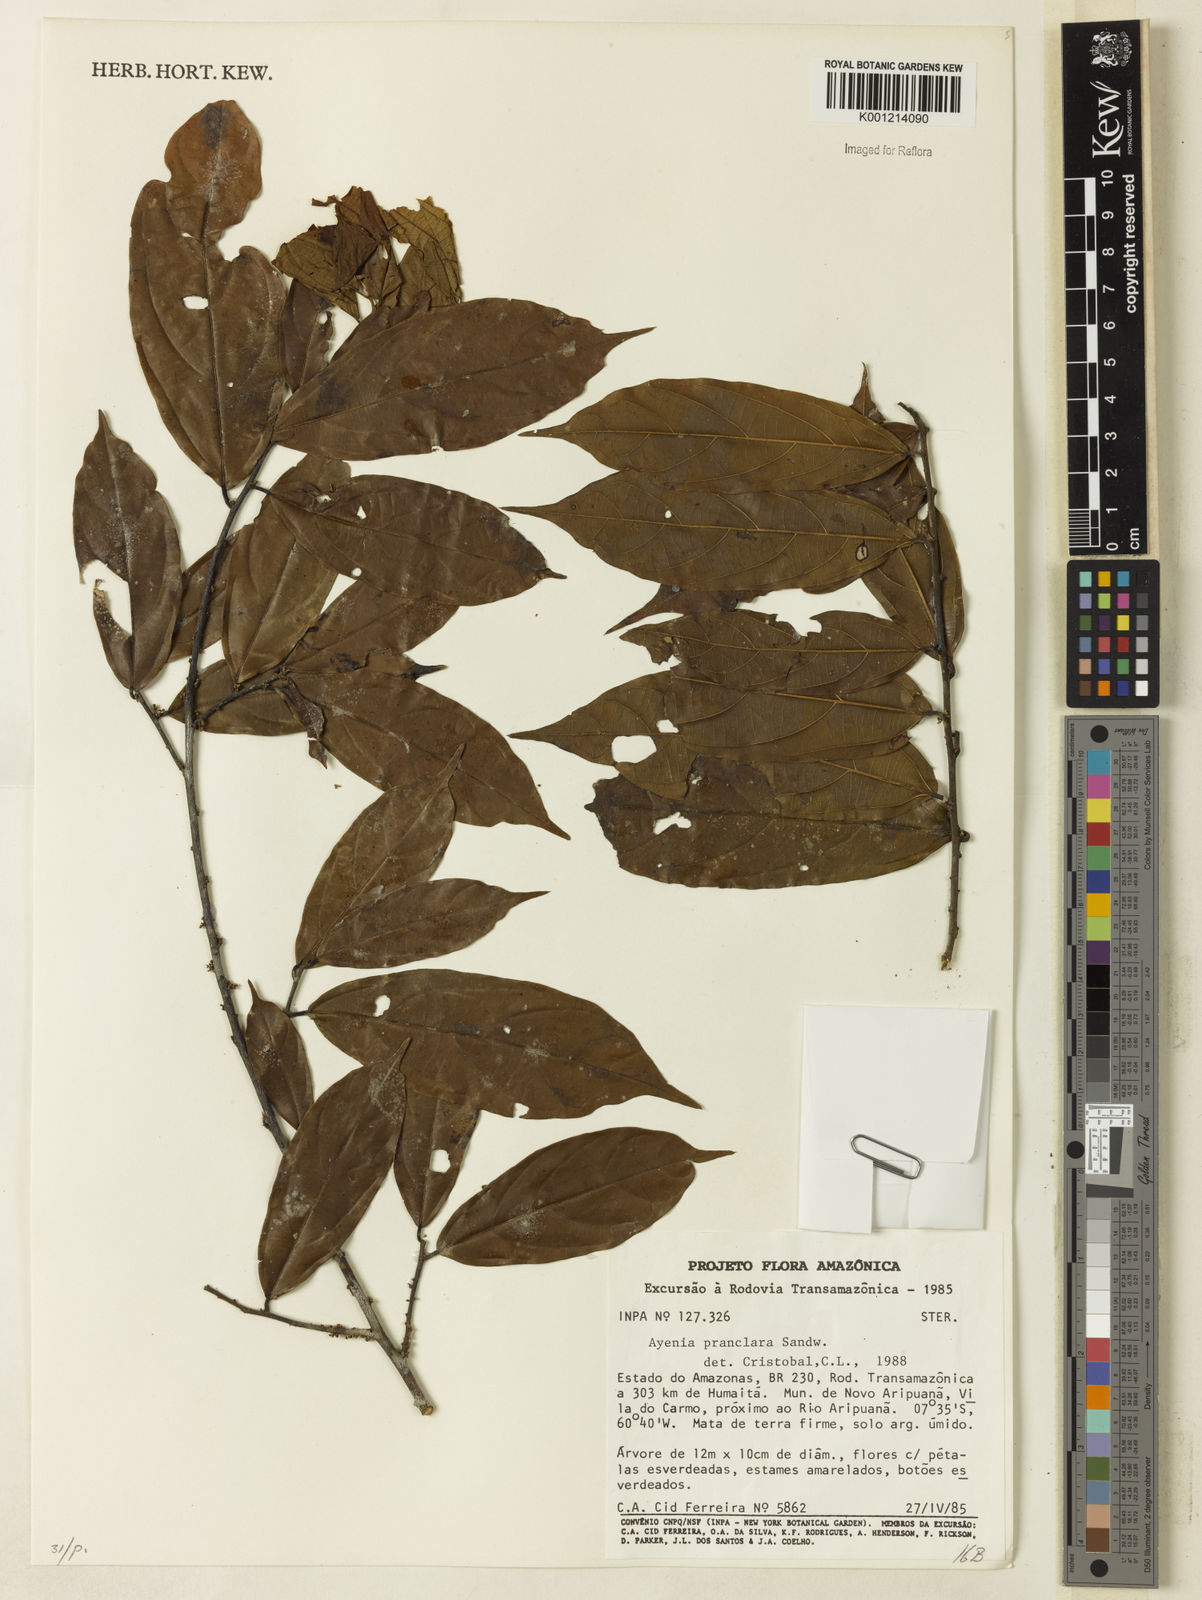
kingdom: Plantae
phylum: Tracheophyta
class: Magnoliopsida
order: Malvales
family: Malvaceae
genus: Ayenia
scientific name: Ayenia praeclara
